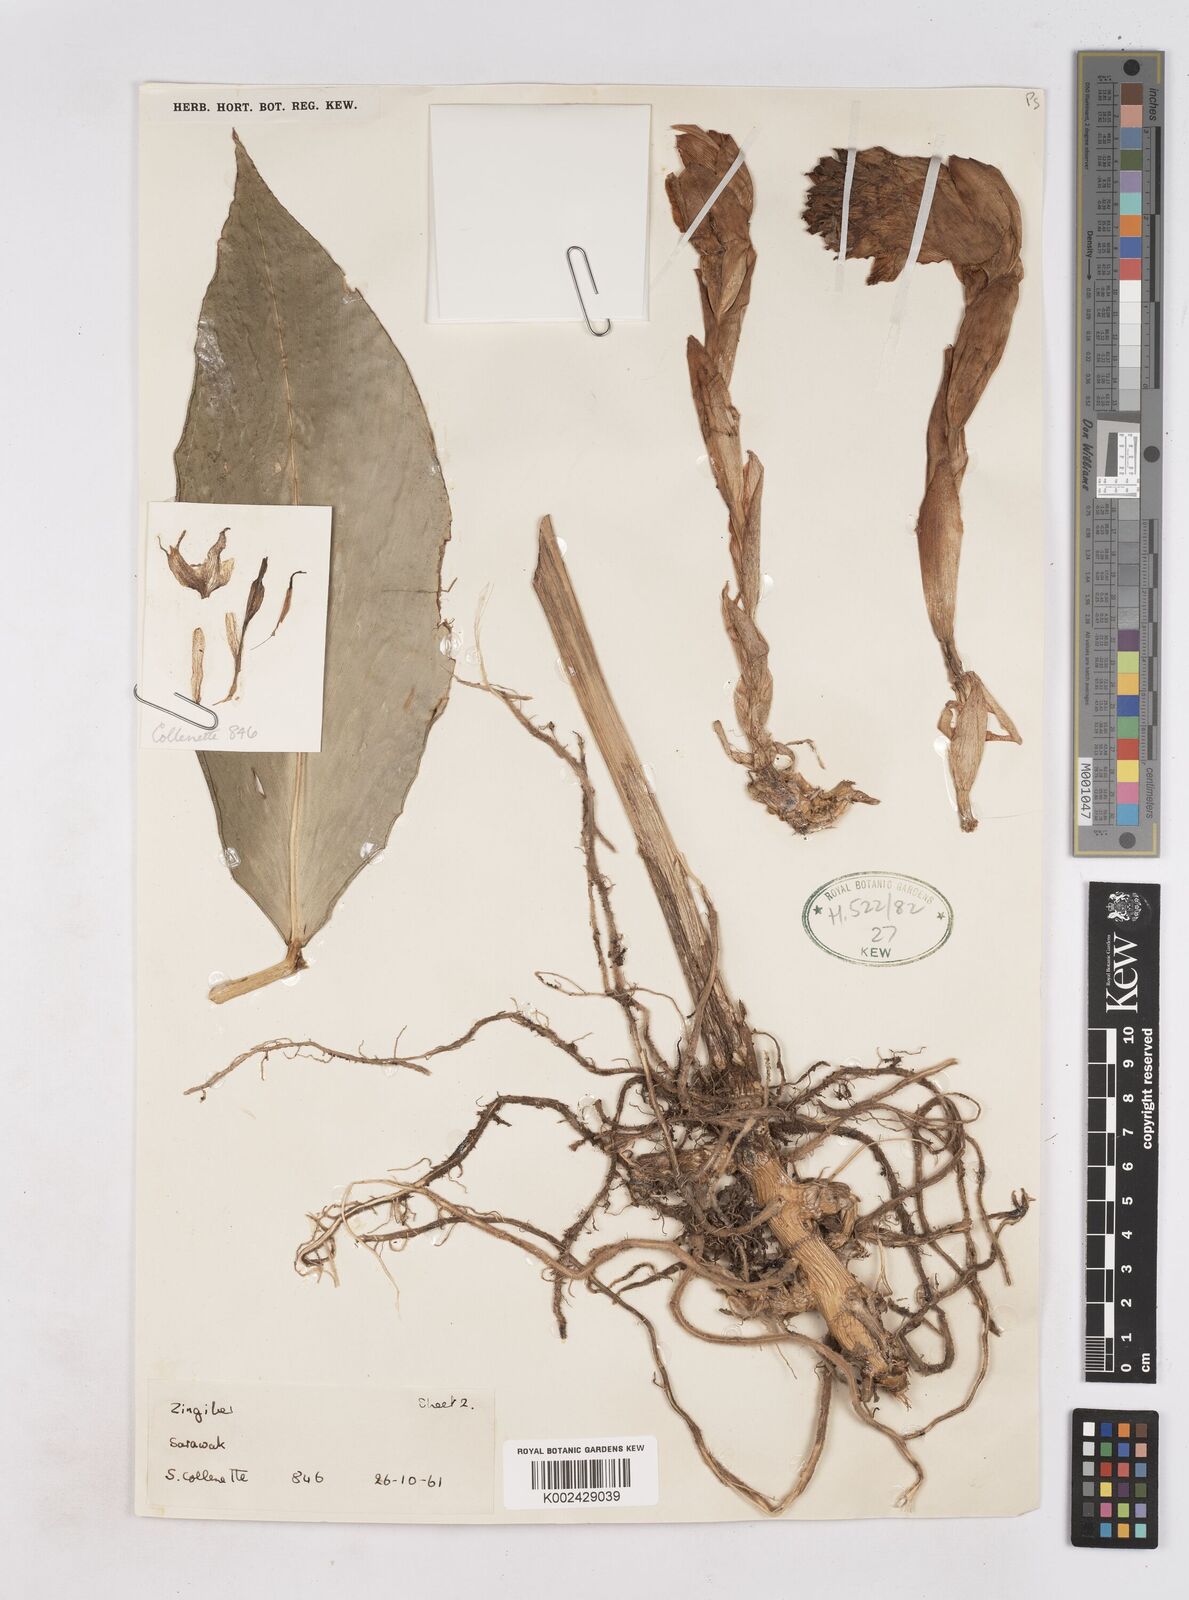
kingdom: Plantae
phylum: Tracheophyta
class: Liliopsida
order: Zingiberales
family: Zingiberaceae
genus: Zingiber
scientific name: Zingiber longipedunculatum
